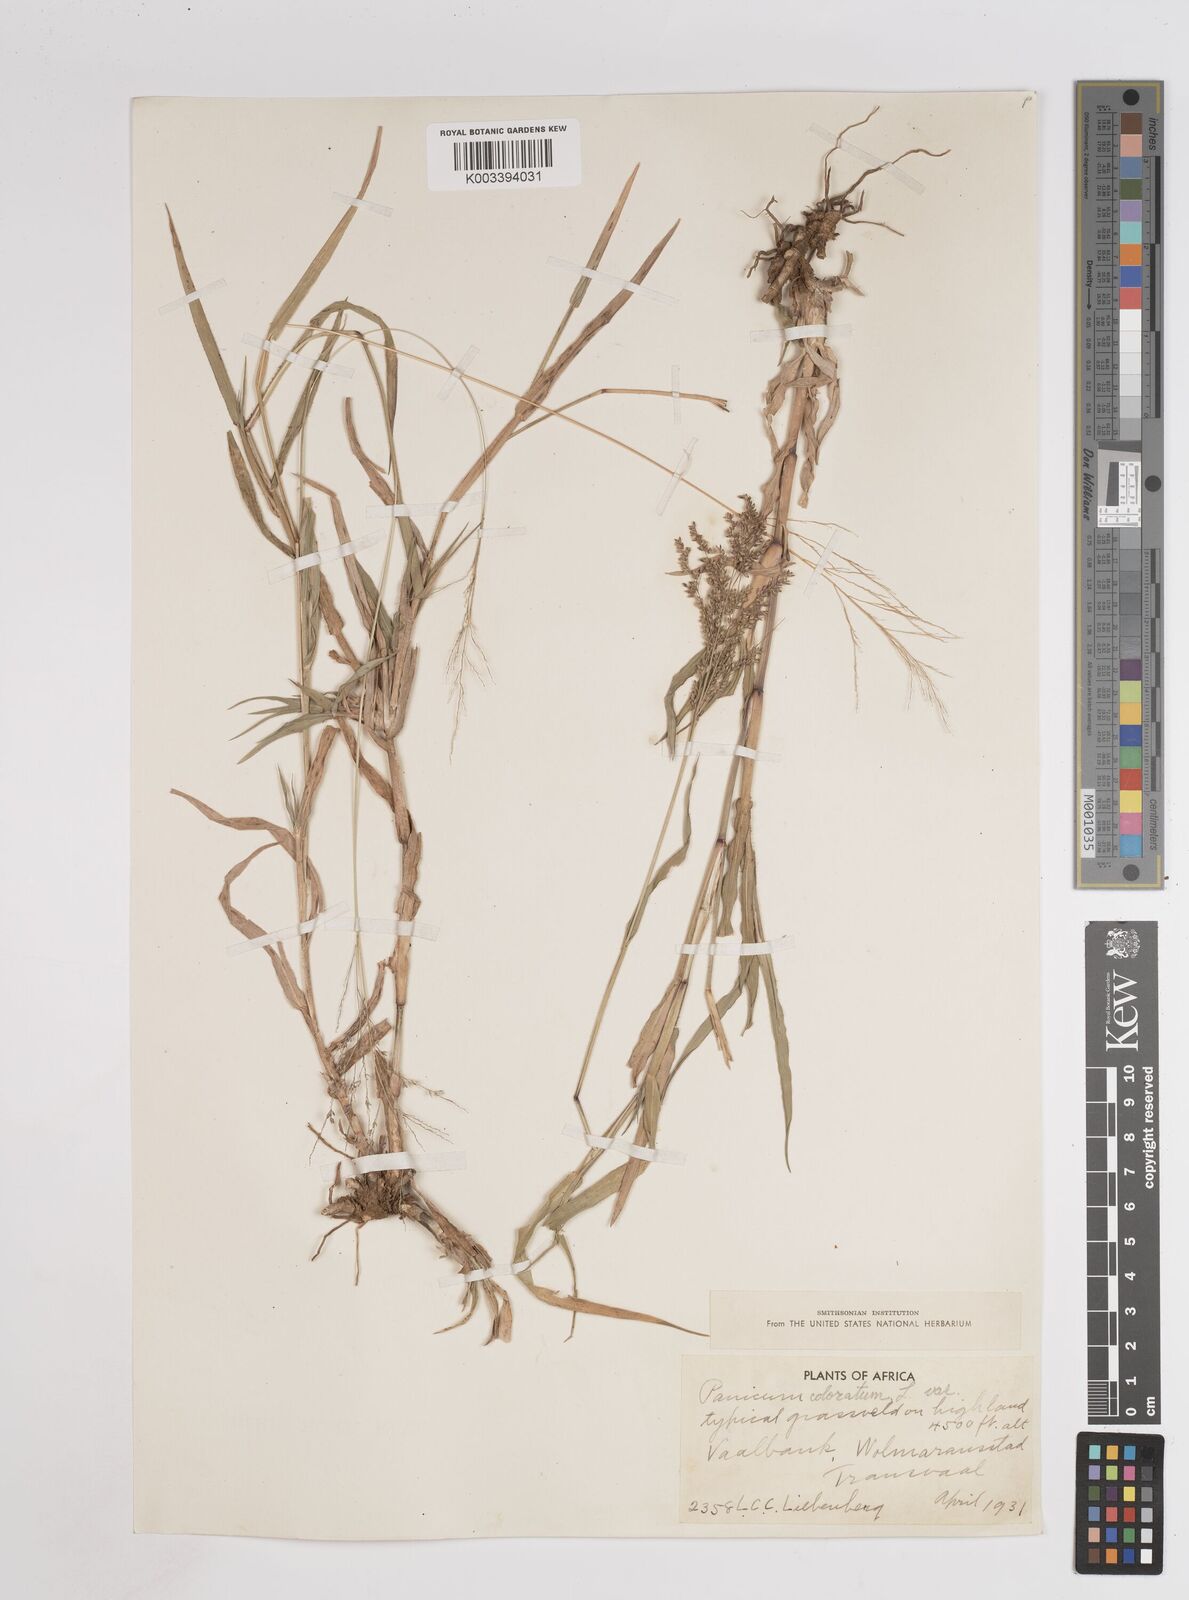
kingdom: Plantae
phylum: Tracheophyta
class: Liliopsida
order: Poales
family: Poaceae
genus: Panicum
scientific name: Panicum coloratum
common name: Kleingrass
